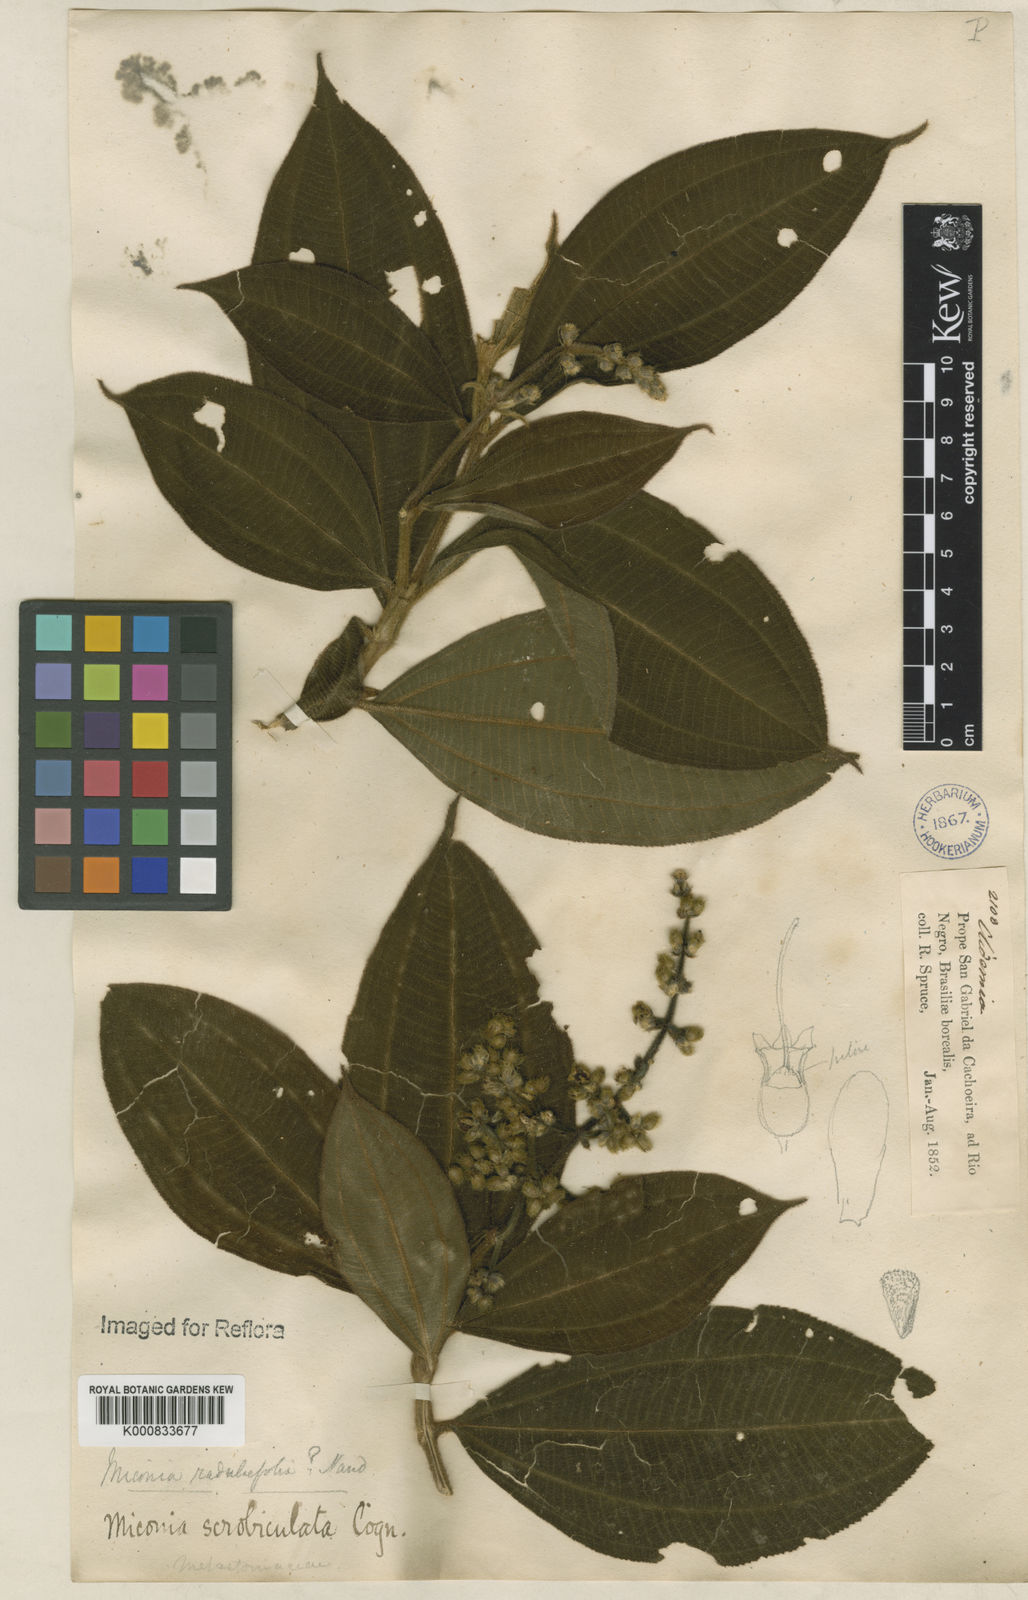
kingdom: Plantae
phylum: Tracheophyta
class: Magnoliopsida
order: Myrtales
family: Melastomataceae
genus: Miconia
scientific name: Miconia radulifolia
